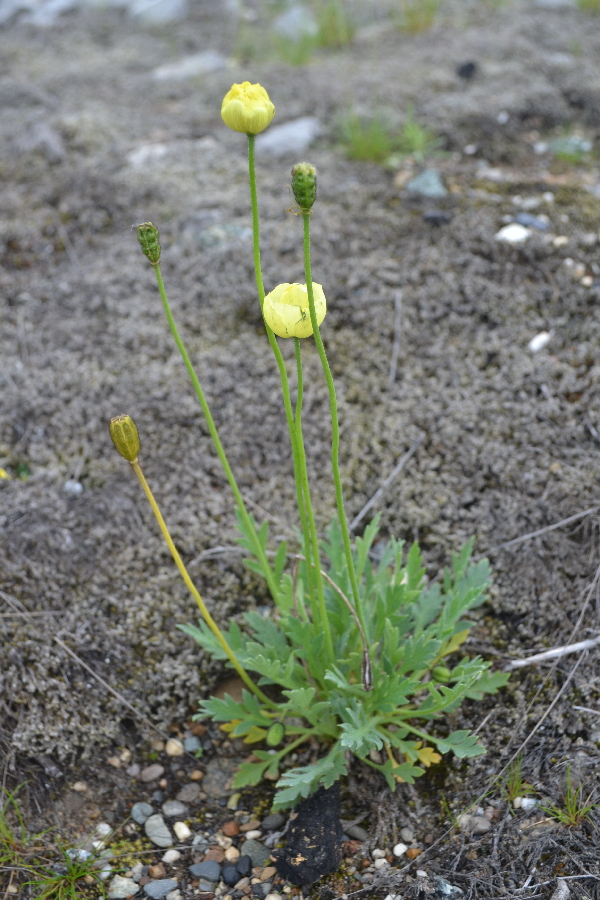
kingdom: Plantae
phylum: Tracheophyta
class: Magnoliopsida
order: Ranunculales
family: Papaveraceae
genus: Papaver
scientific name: Papaver lapponicum
